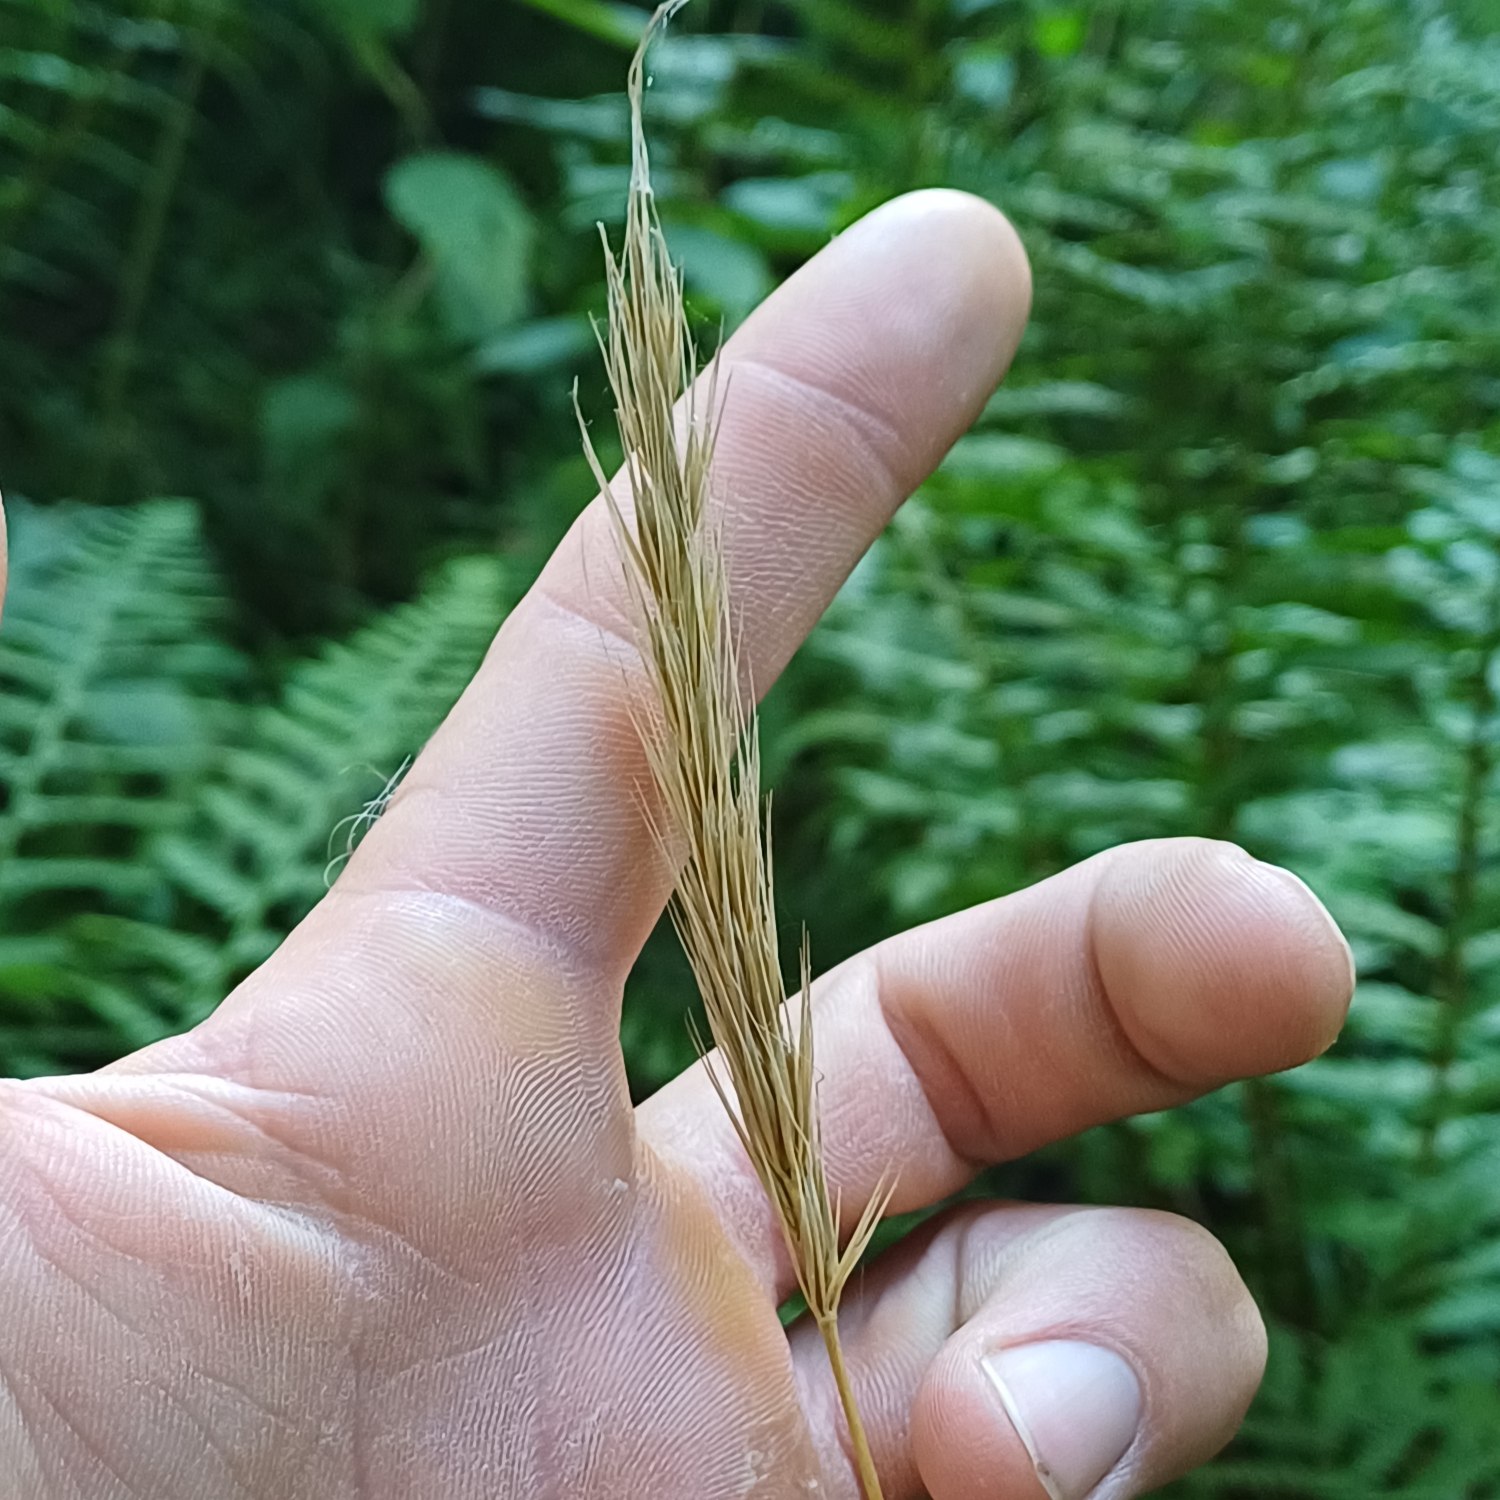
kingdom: Plantae
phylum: Tracheophyta
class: Liliopsida
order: Poales
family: Poaceae
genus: Hordelymus
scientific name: Hordelymus europaeus
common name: Skovbyg
